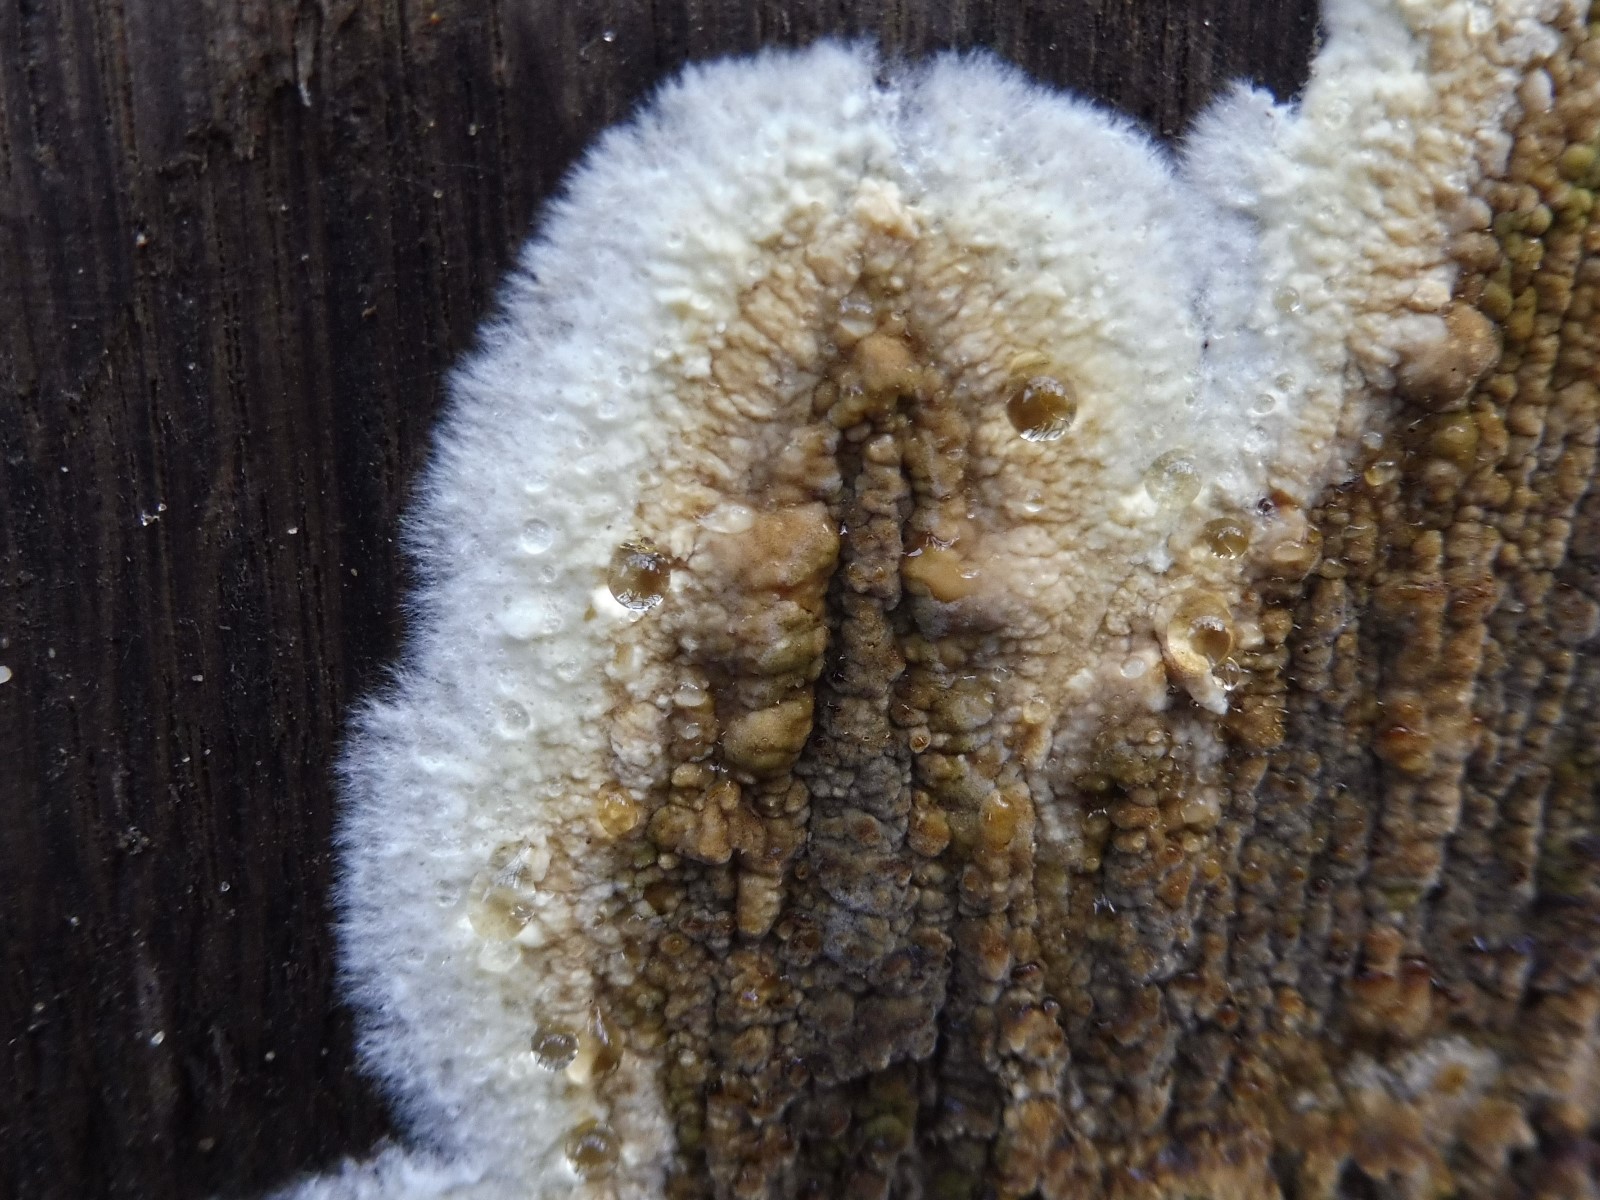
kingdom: Fungi
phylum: Basidiomycota
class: Agaricomycetes
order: Boletales
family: Coniophoraceae
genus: Coniophora
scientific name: Coniophora puteana
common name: gul tømmersvamp
